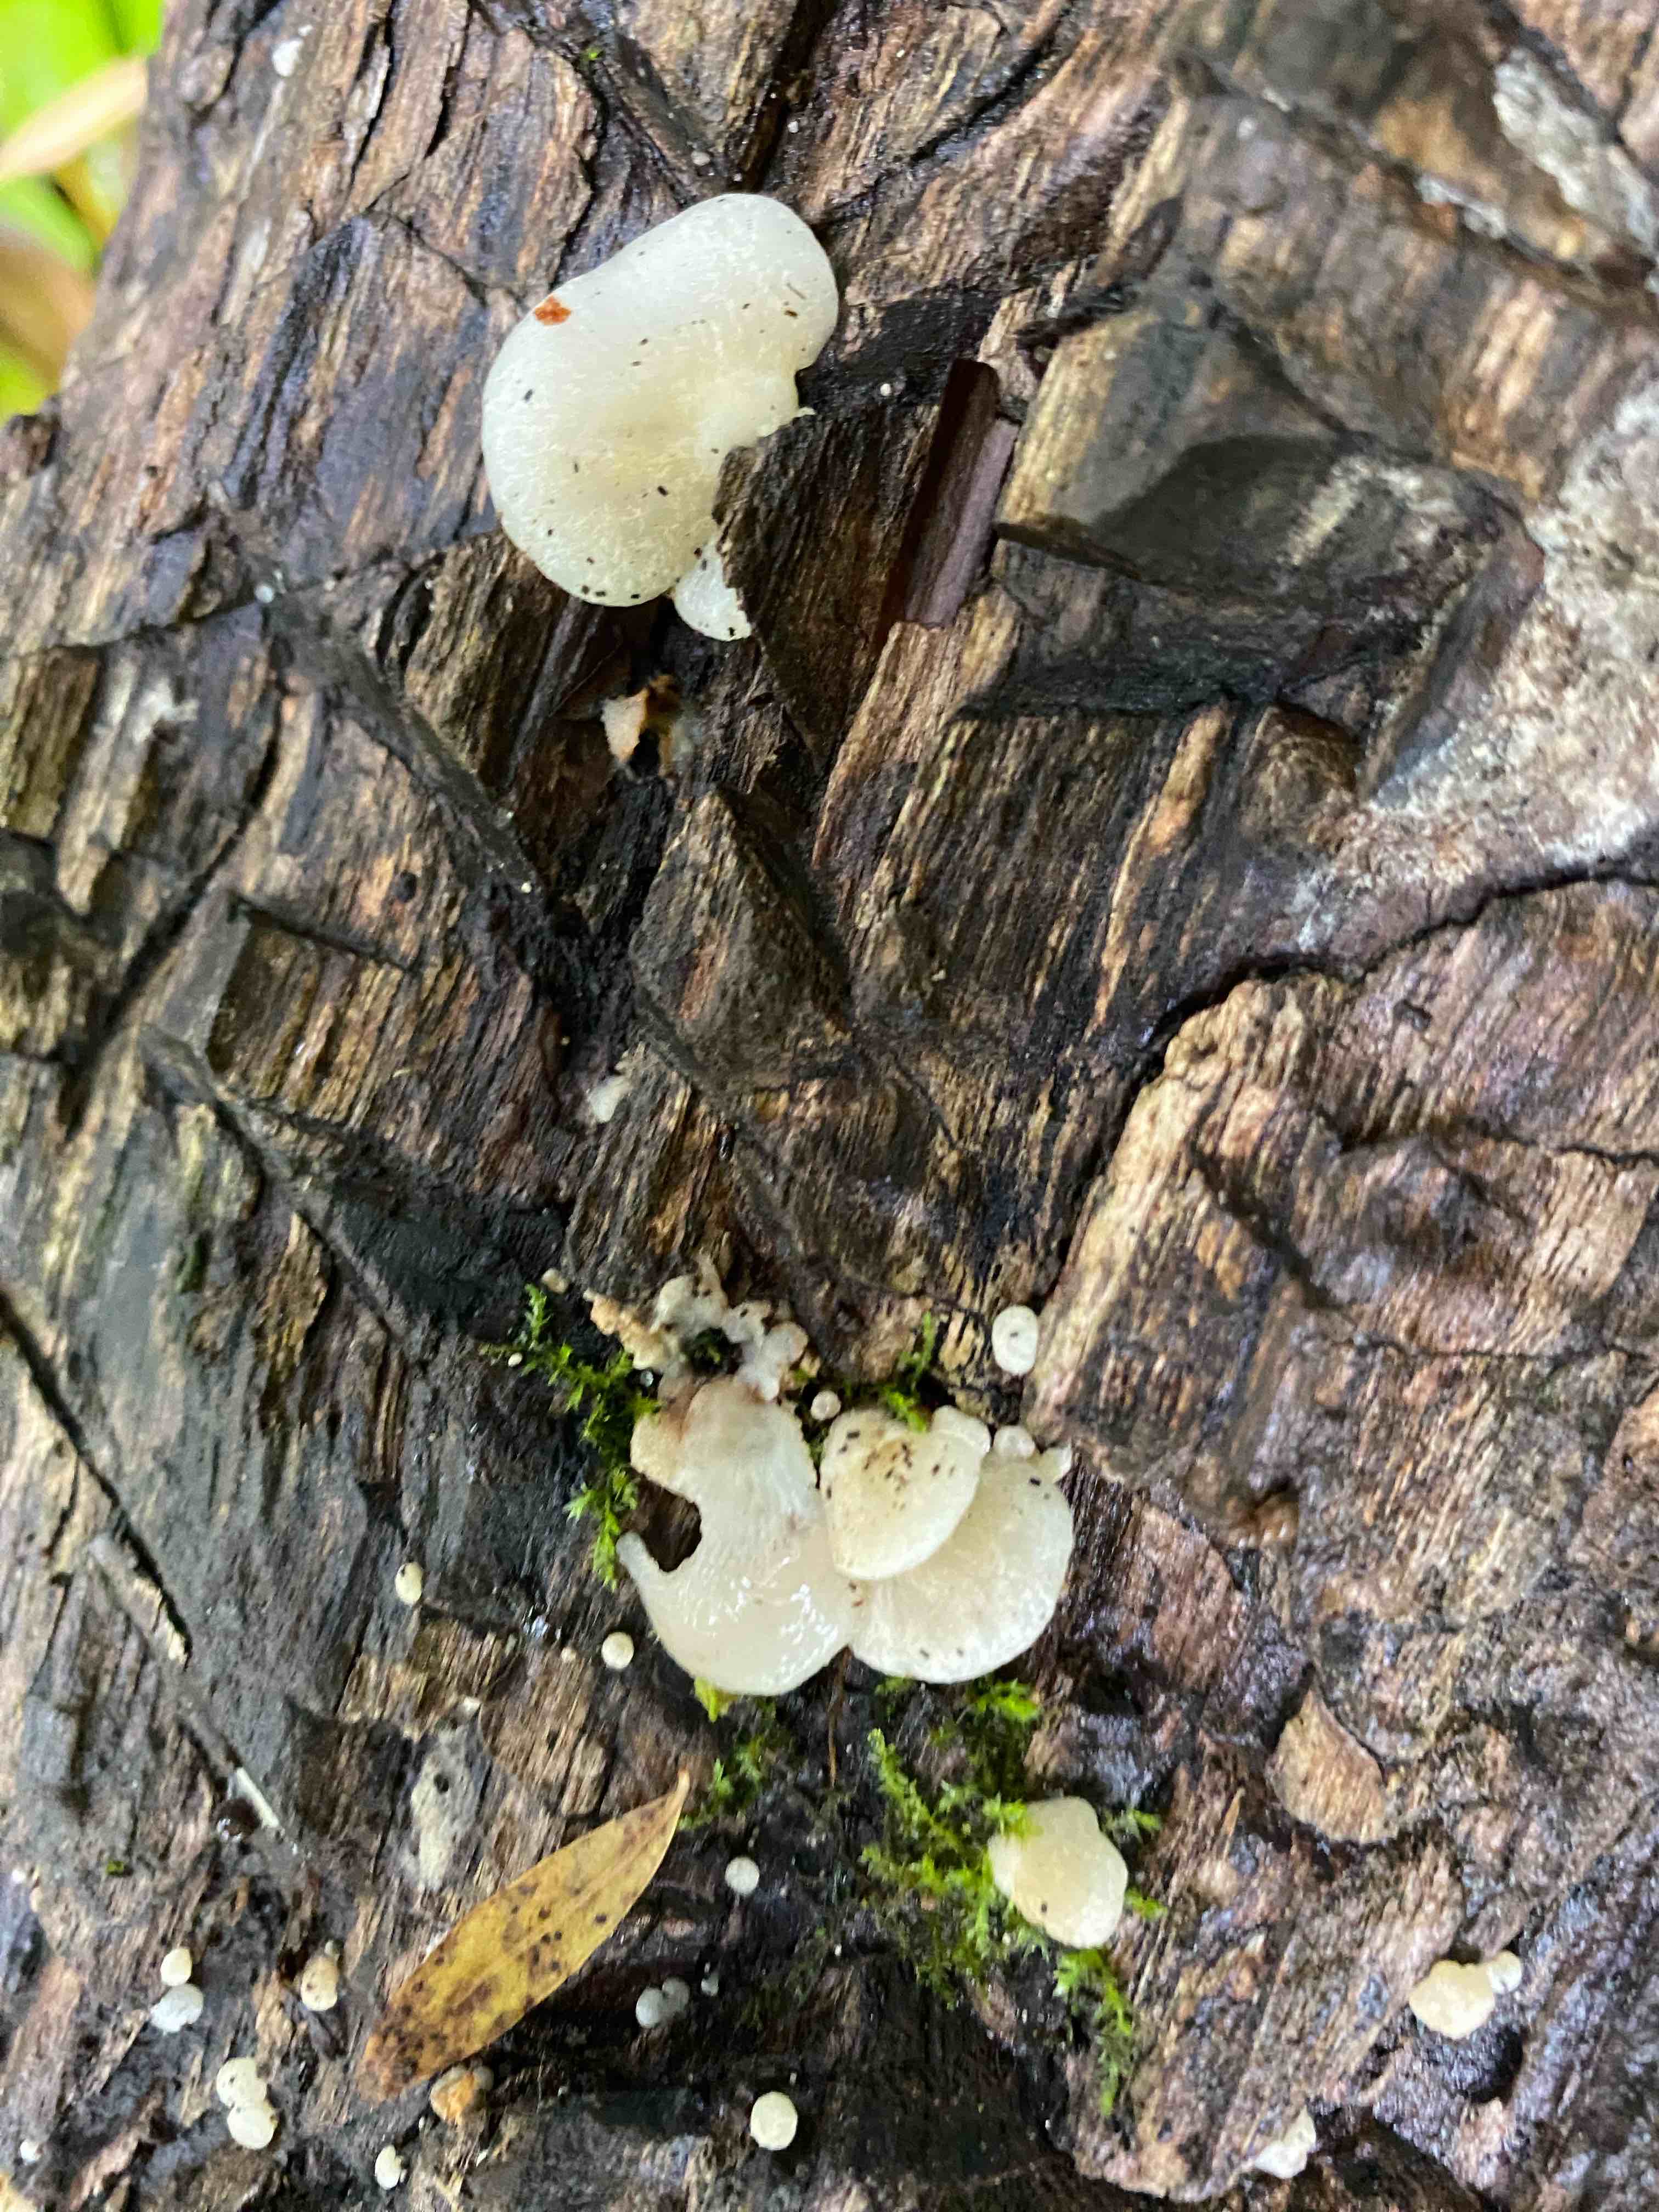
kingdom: Fungi
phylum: Basidiomycota
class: Agaricomycetes
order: Agaricales
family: Crepidotaceae
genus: Crepidotus
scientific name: Crepidotus mollis
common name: blød muslingesvamp
